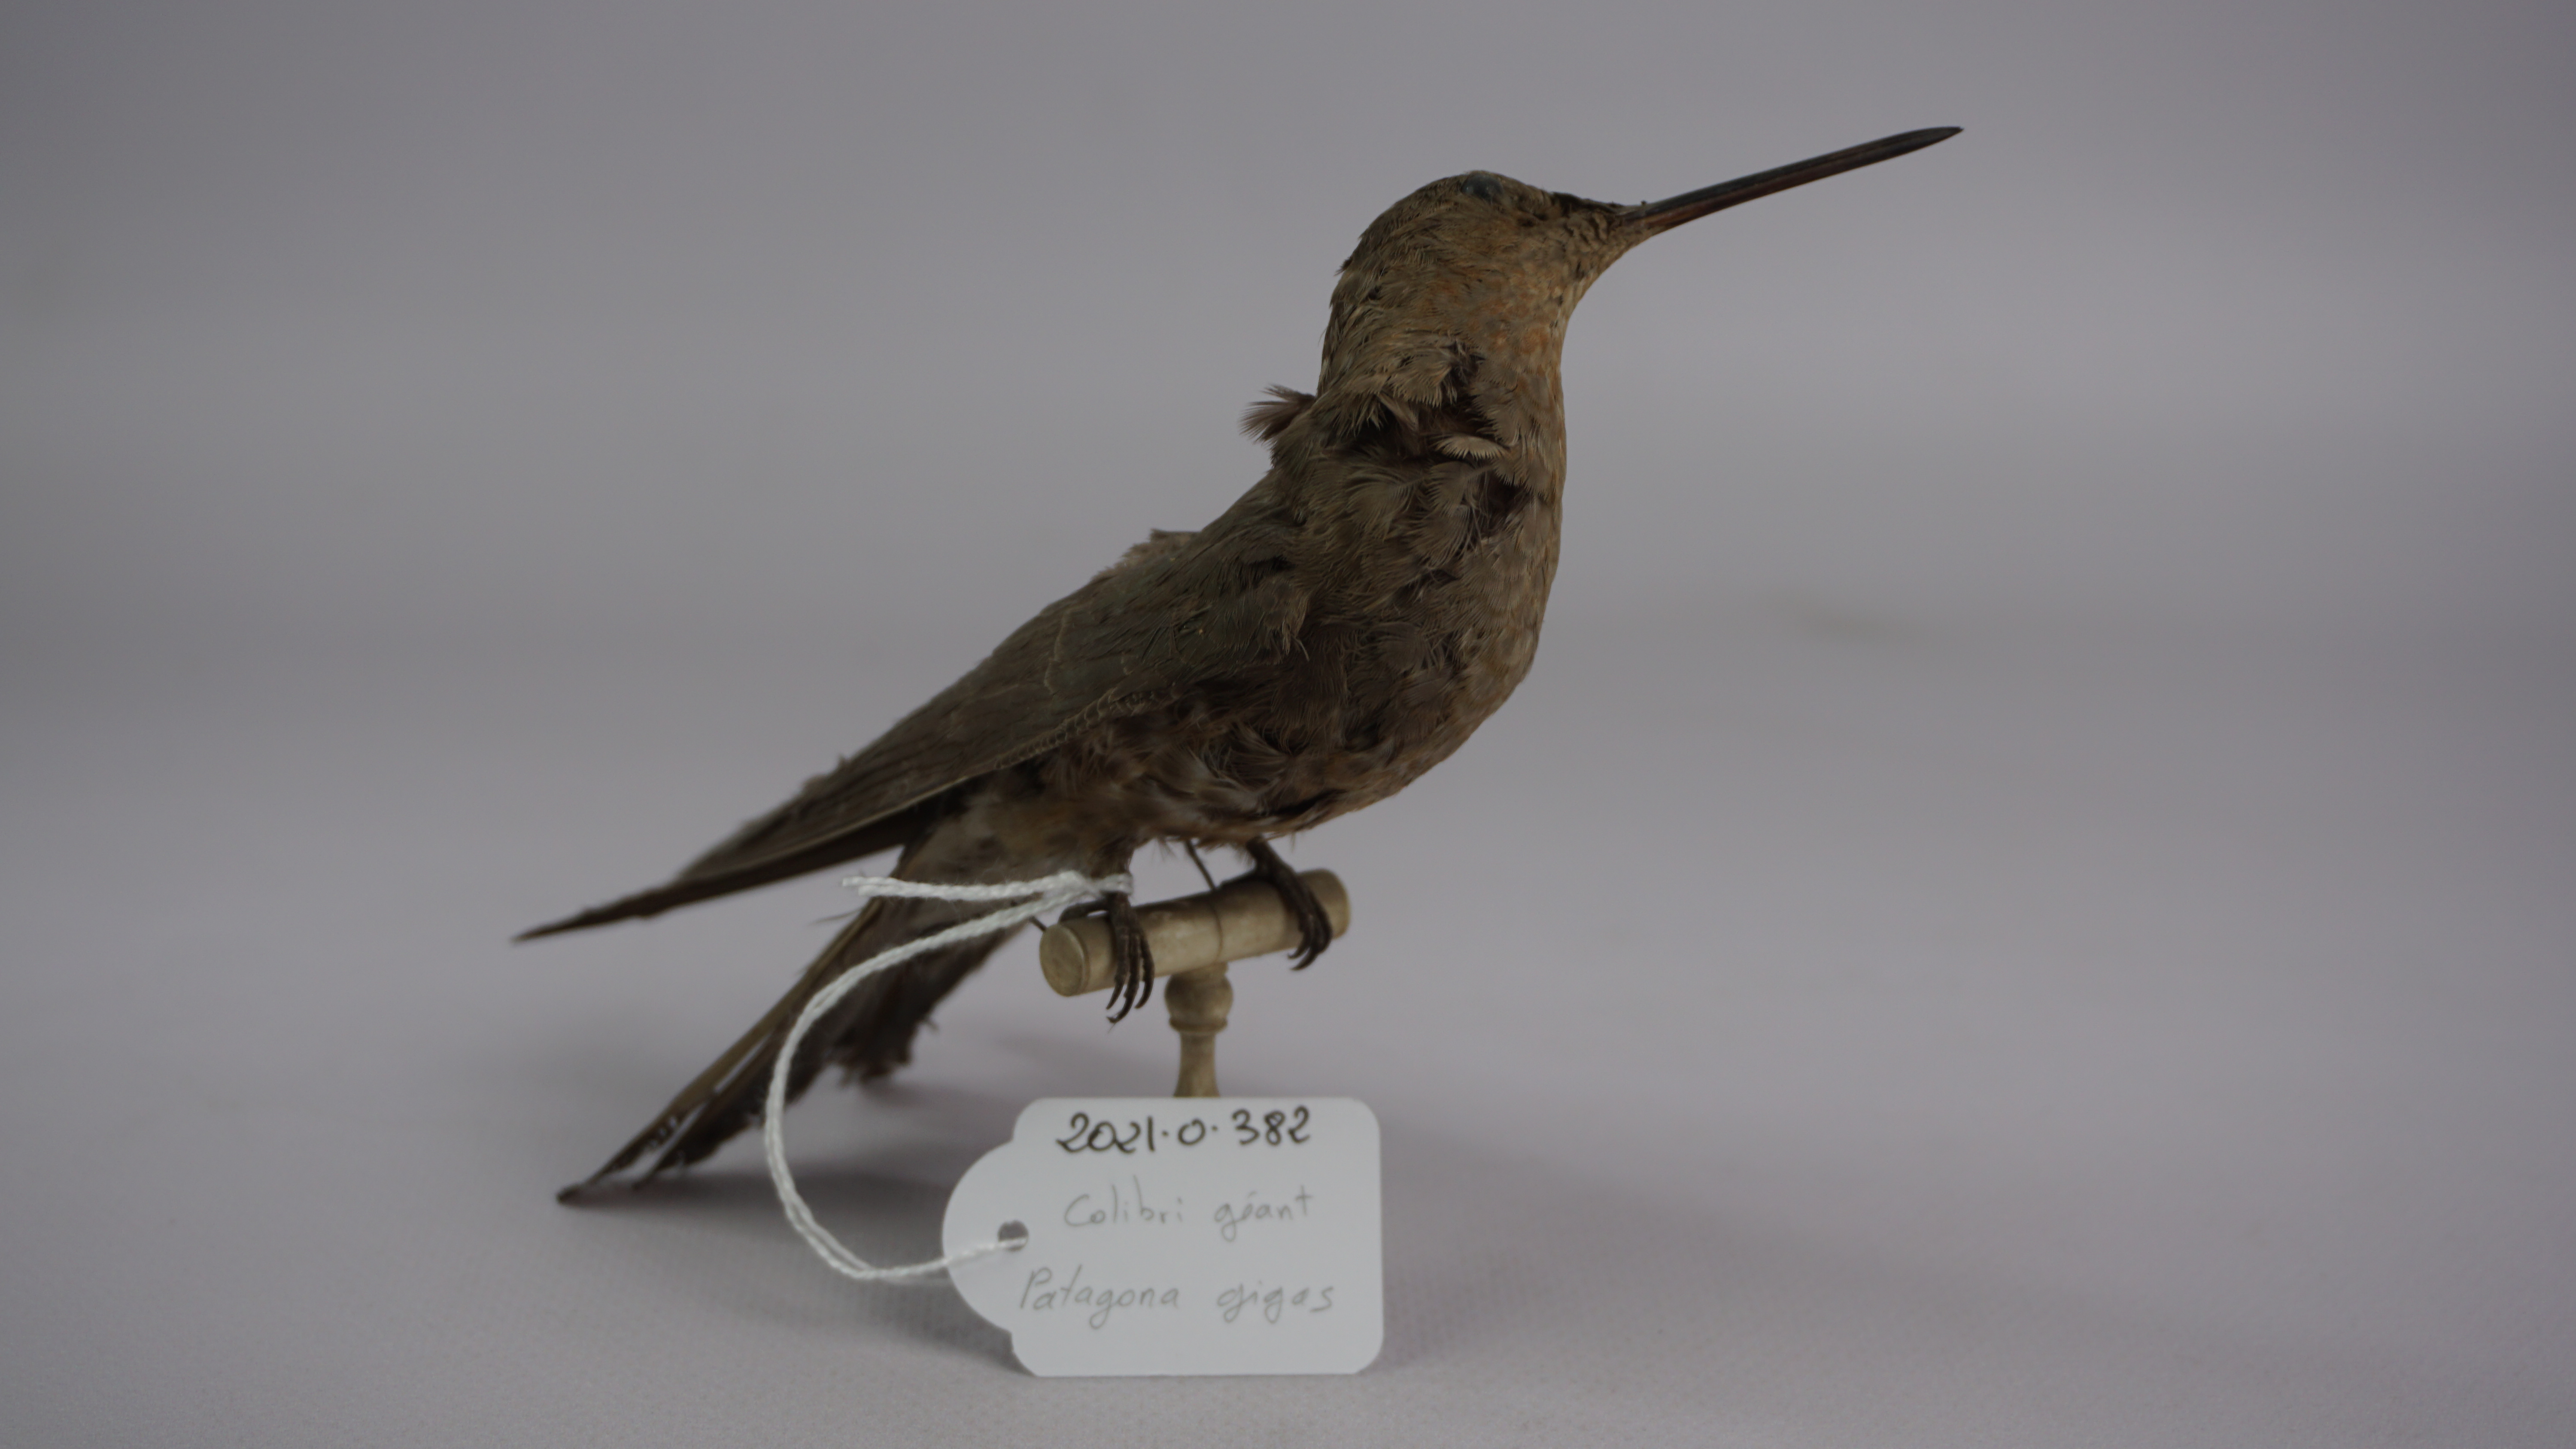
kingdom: Animalia
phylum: Chordata
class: Aves
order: Apodiformes
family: Trochilidae
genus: Patagona
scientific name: Patagona gigas
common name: Giant hummingbird
